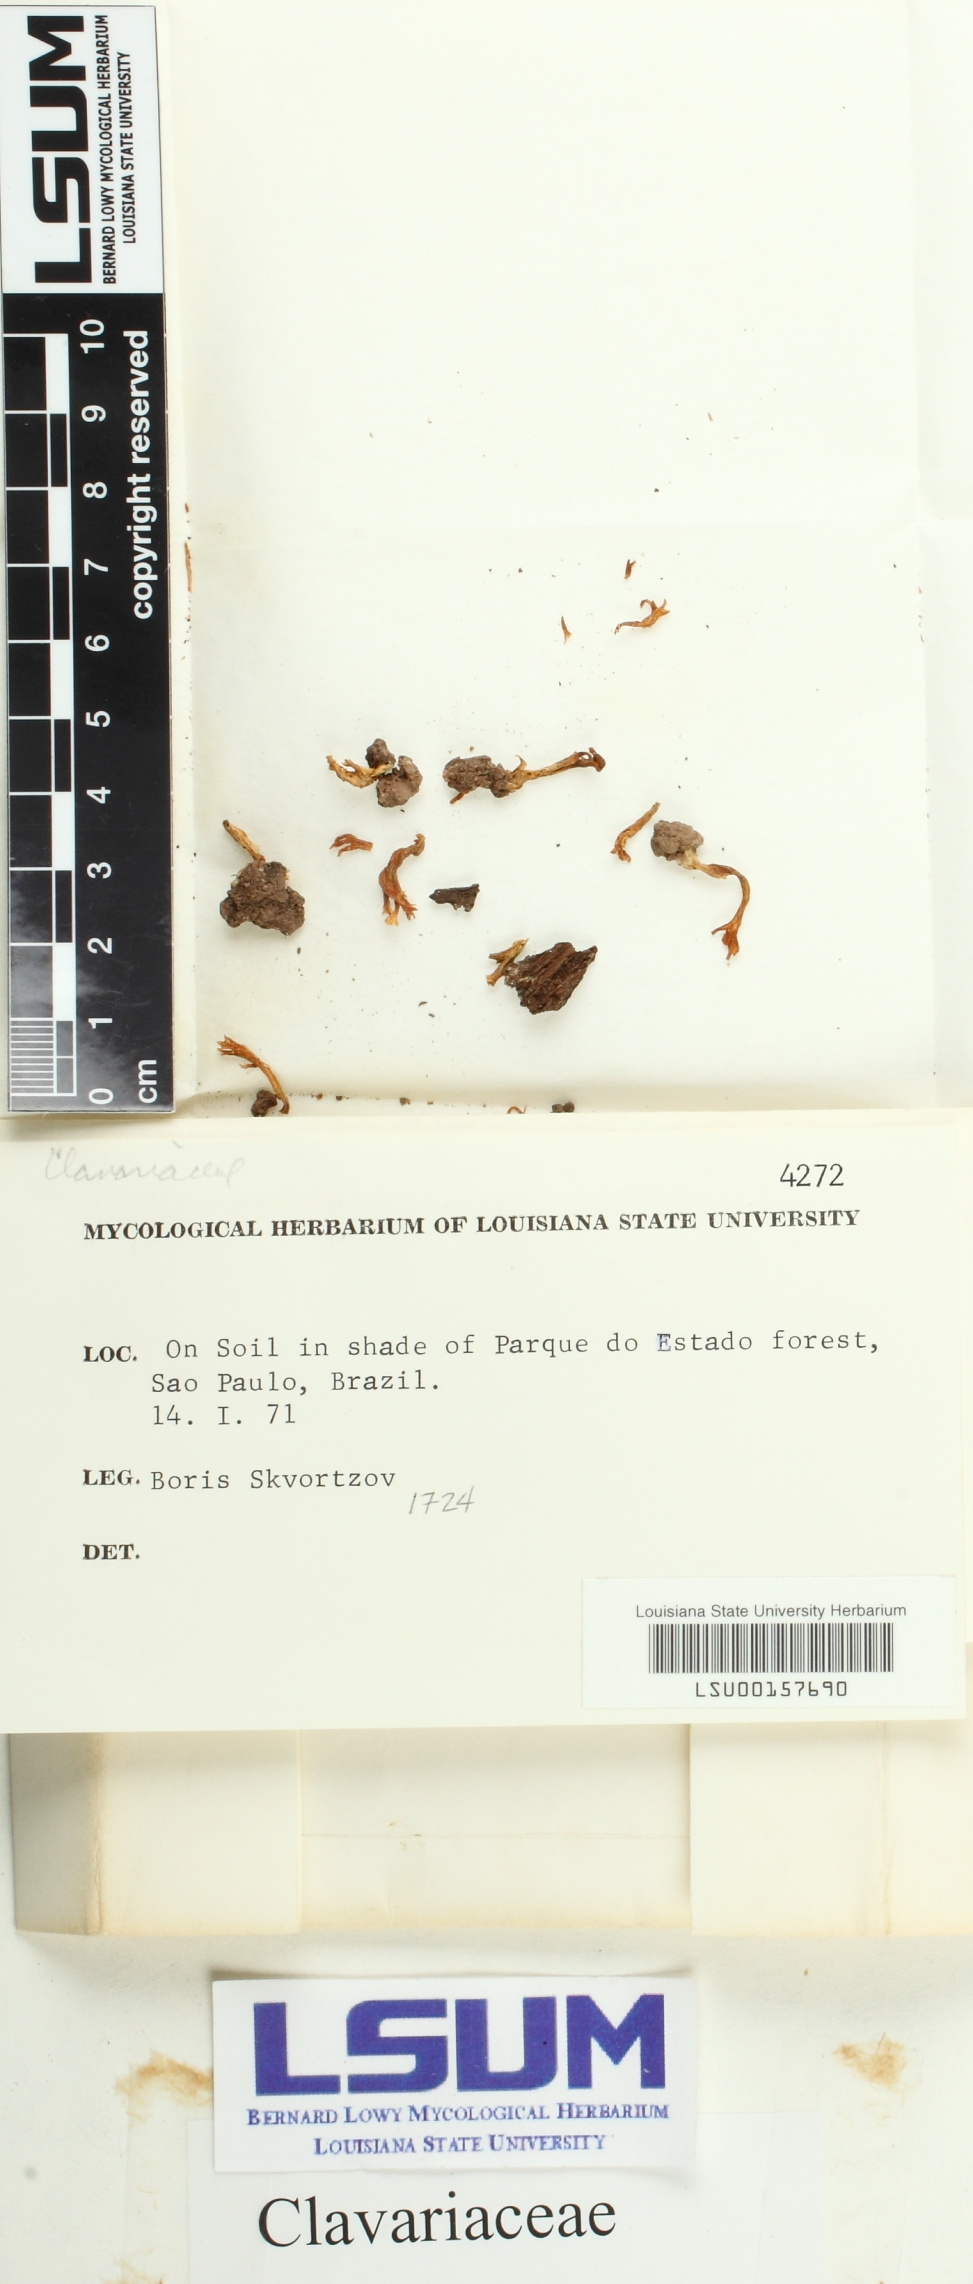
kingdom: Fungi
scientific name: Fungi
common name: Fungi
